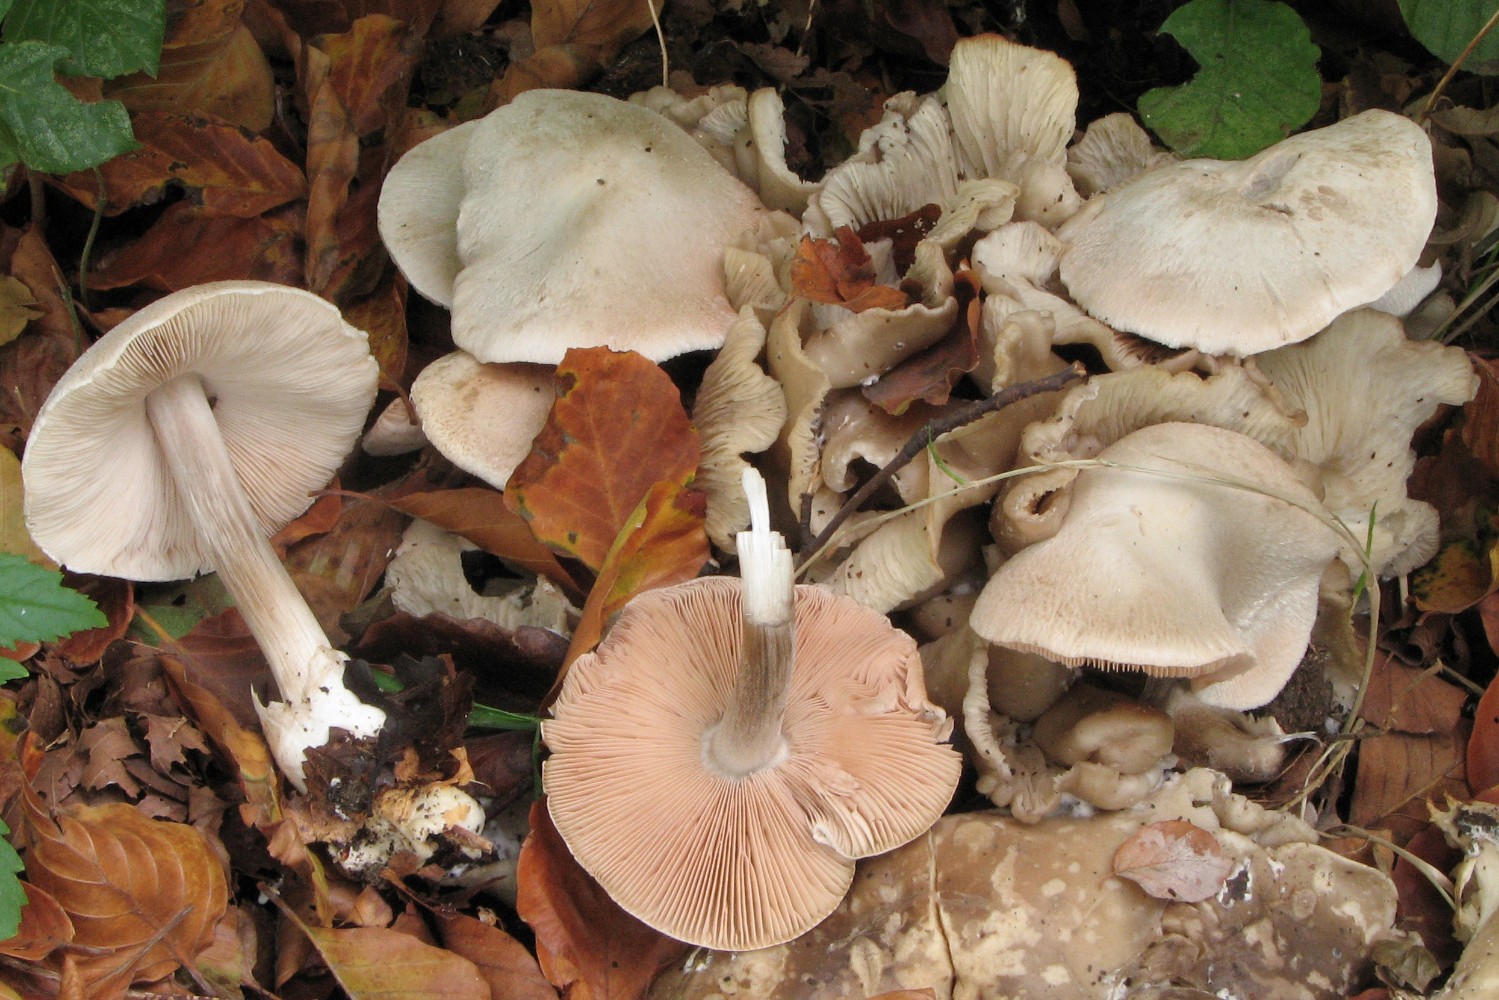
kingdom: Fungi
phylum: Basidiomycota
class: Agaricomycetes
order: Agaricales
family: Pluteaceae
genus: Volvariella
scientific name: Volvariella surrecta
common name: snyltende posesvamp
